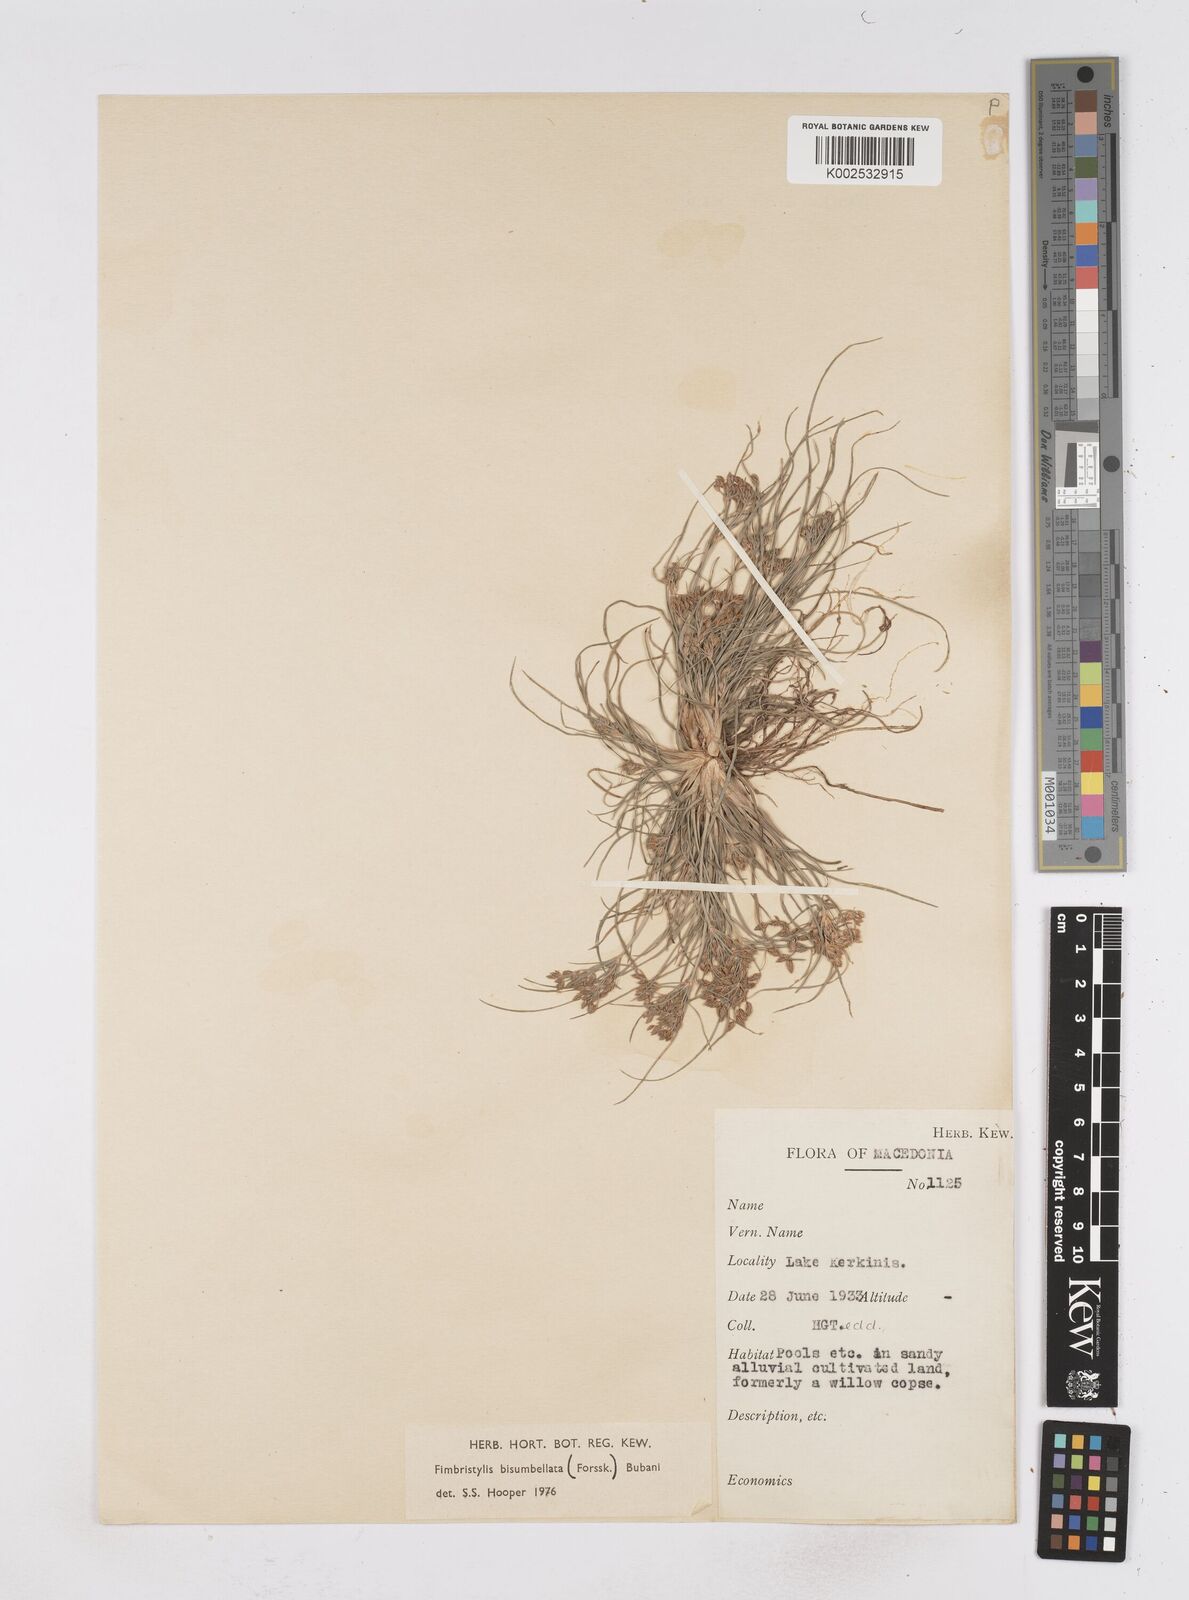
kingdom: Plantae
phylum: Tracheophyta
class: Liliopsida
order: Poales
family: Cyperaceae
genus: Fimbristylis
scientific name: Fimbristylis bisumbellata
